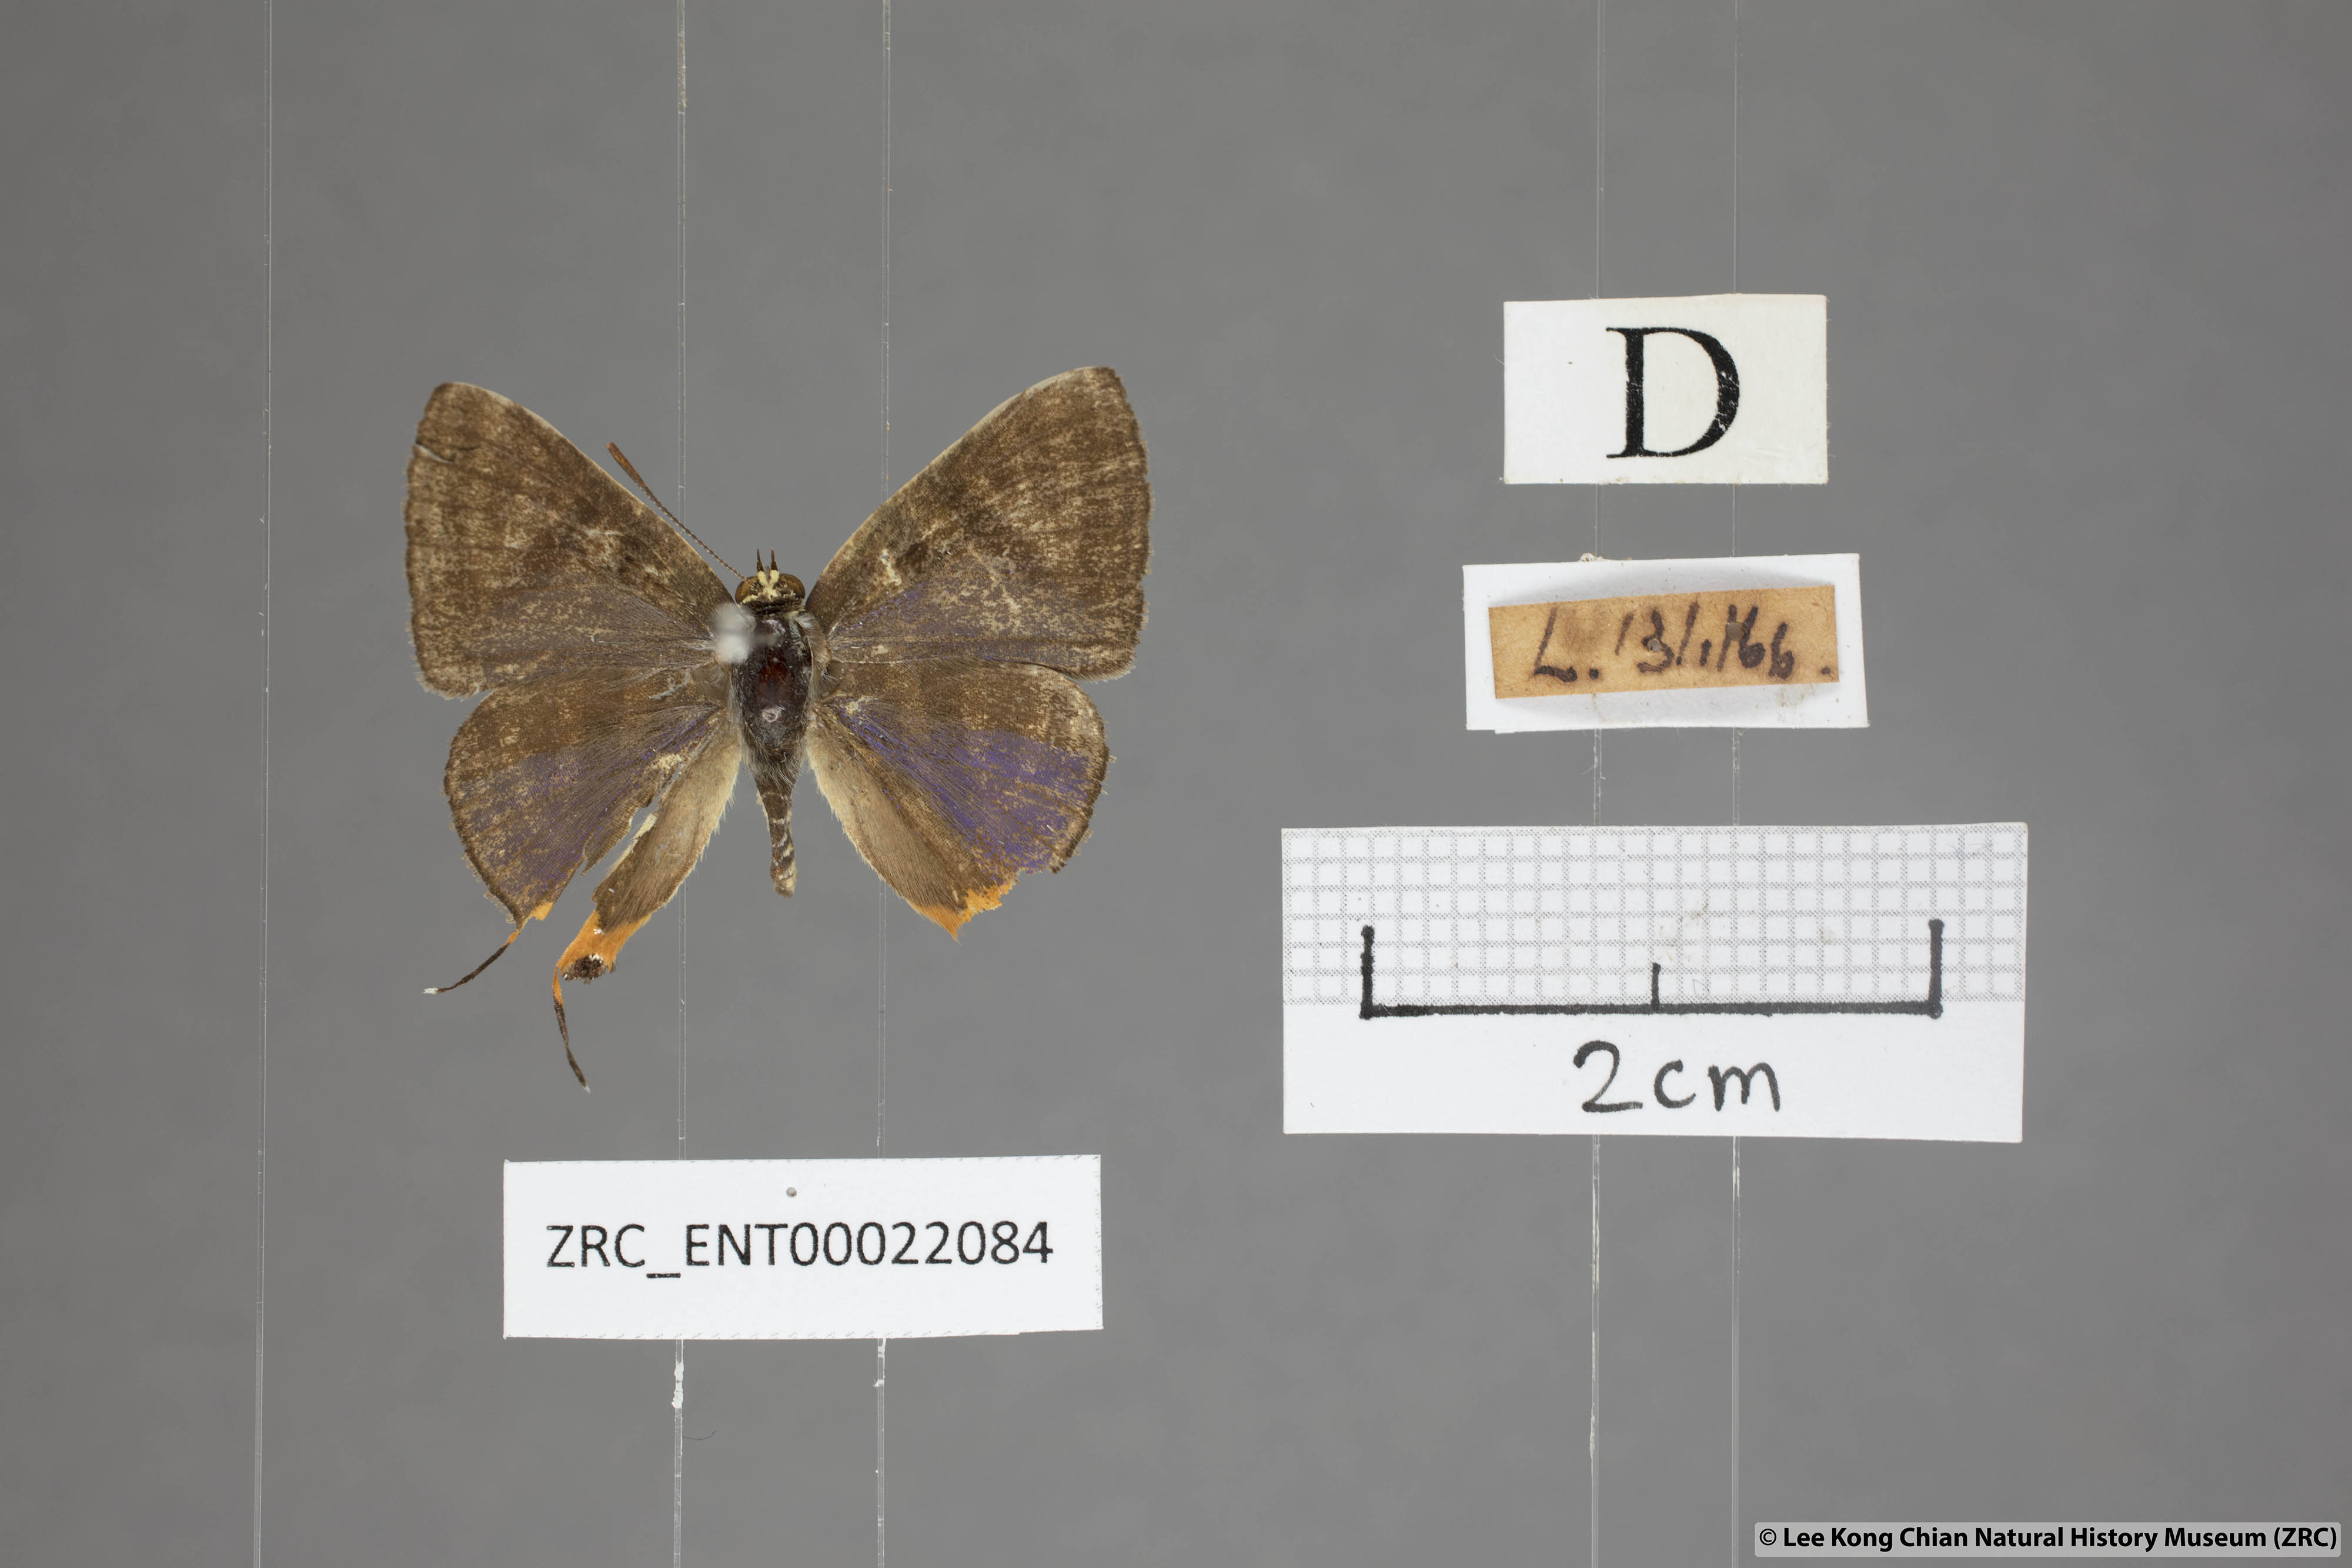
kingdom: Animalia
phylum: Arthropoda
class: Insecta
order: Lepidoptera
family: Lycaenidae
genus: Spindasis
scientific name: Spindasis syama
